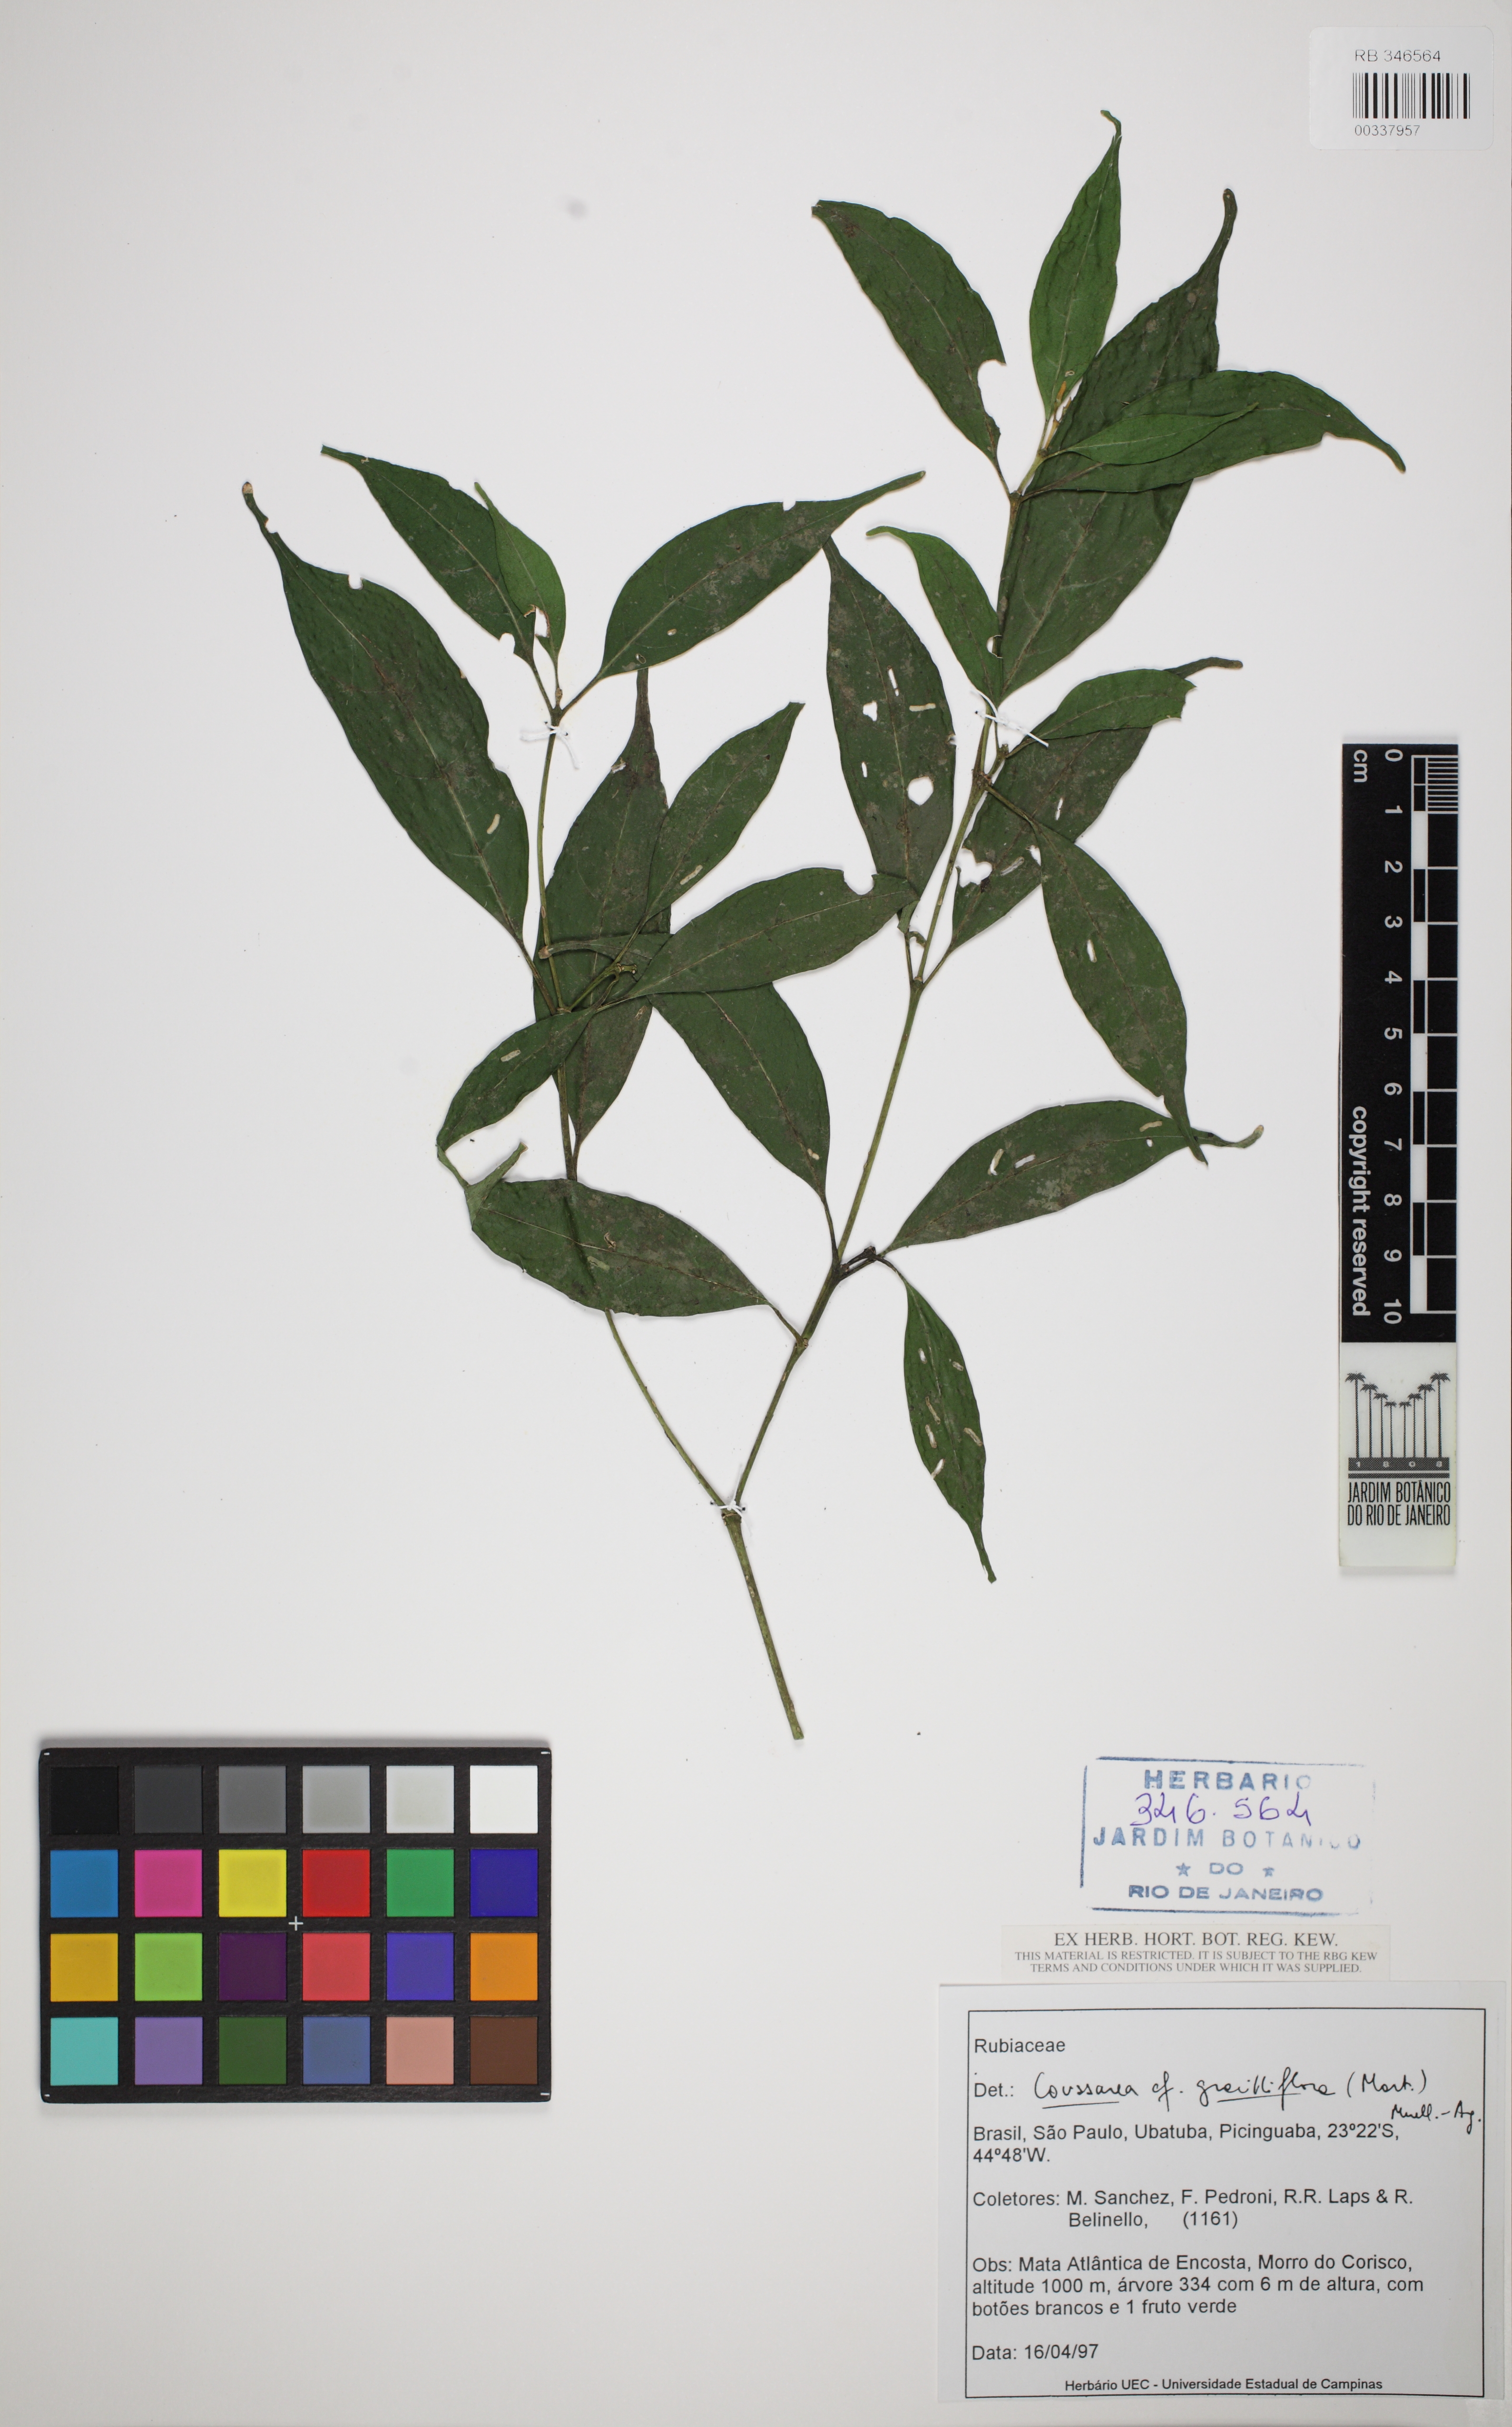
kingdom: Plantae
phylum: Tracheophyta
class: Magnoliopsida
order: Gentianales
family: Rubiaceae
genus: Coussarea
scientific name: Coussarea graciliflora
